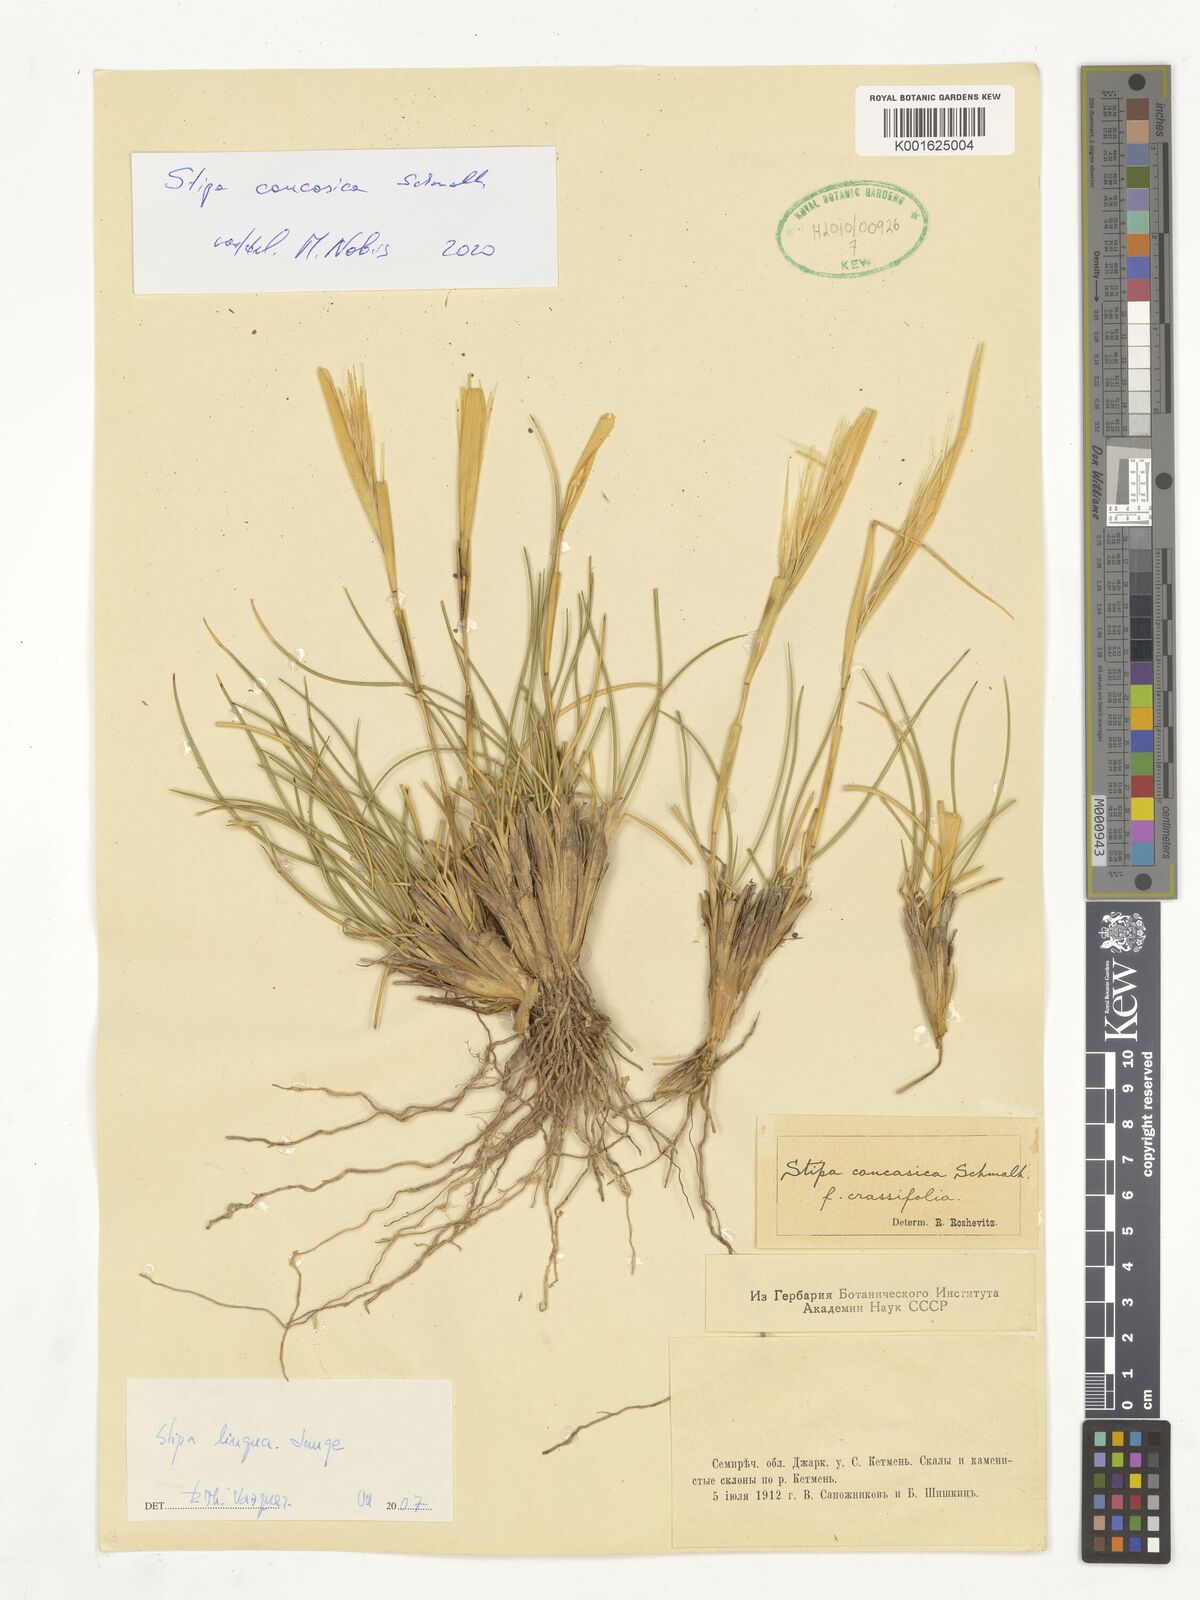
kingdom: Plantae
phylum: Tracheophyta
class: Liliopsida
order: Poales
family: Poaceae
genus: Stipa
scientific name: Stipa caucasica
